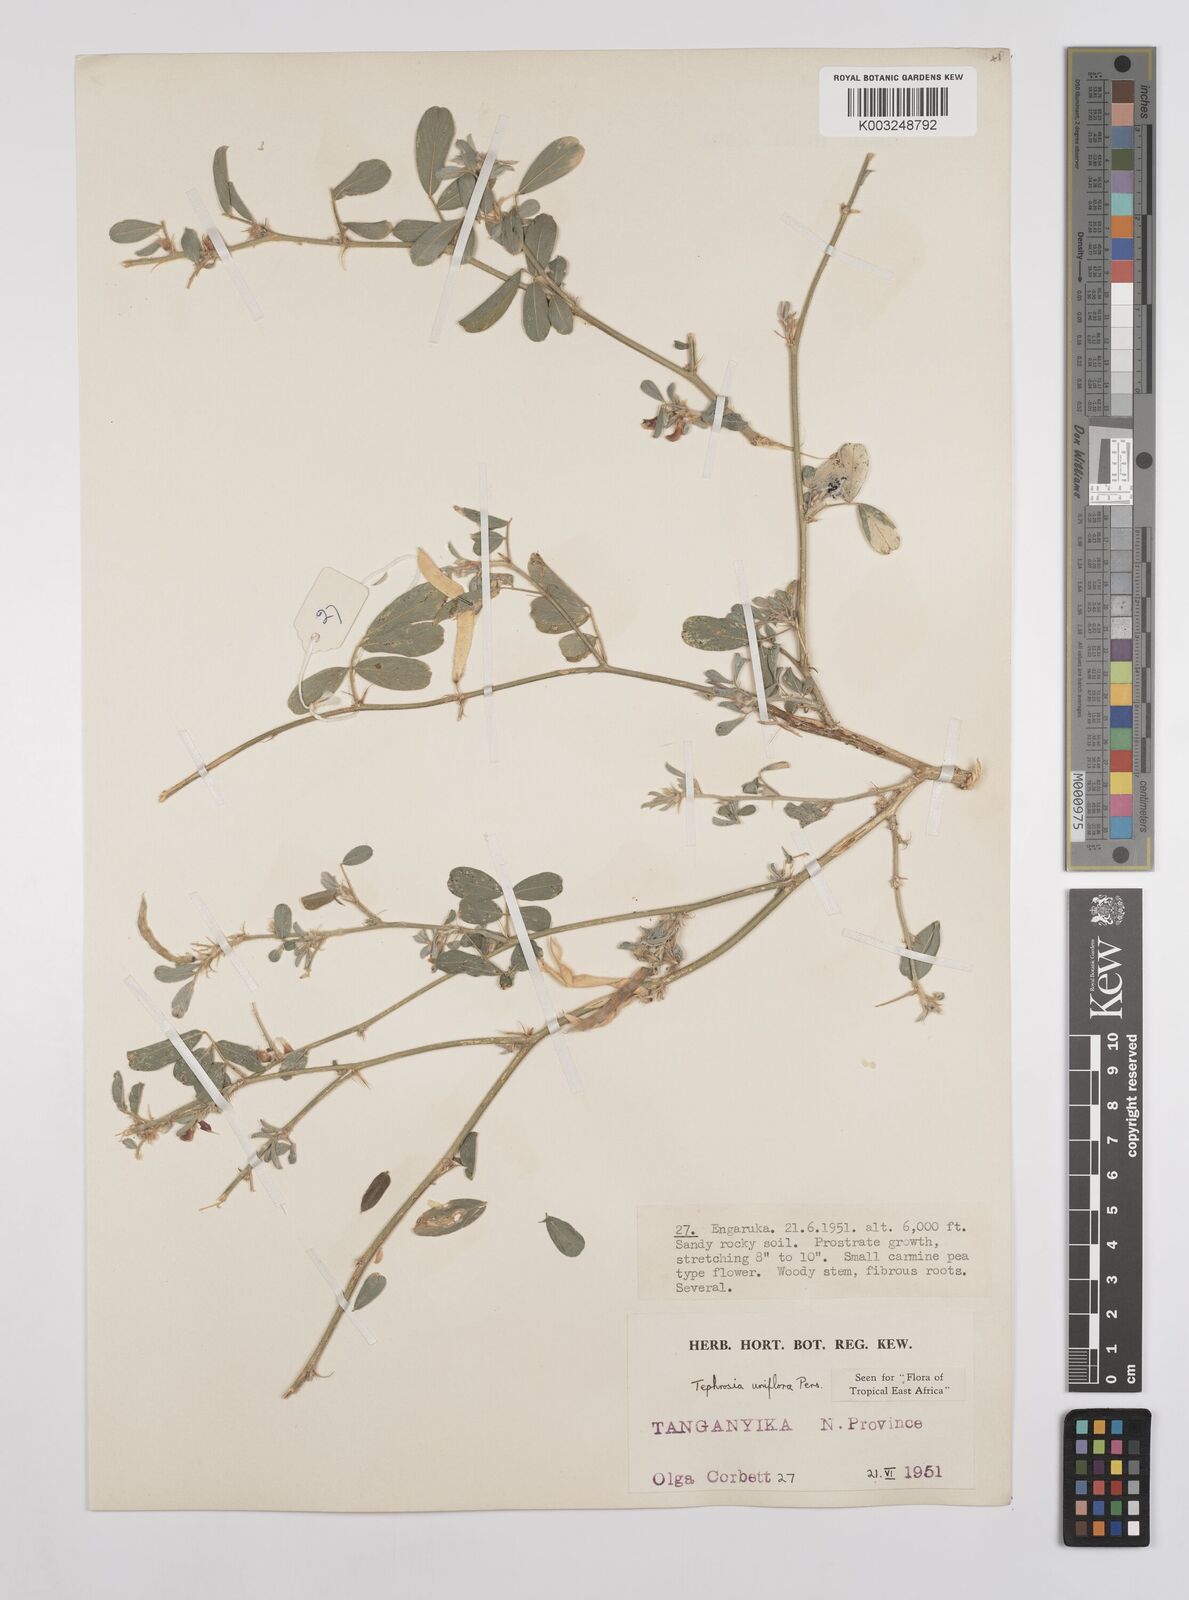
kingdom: Plantae
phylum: Tracheophyta
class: Magnoliopsida
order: Fabales
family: Fabaceae
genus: Tephrosia
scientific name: Tephrosia uniflora
